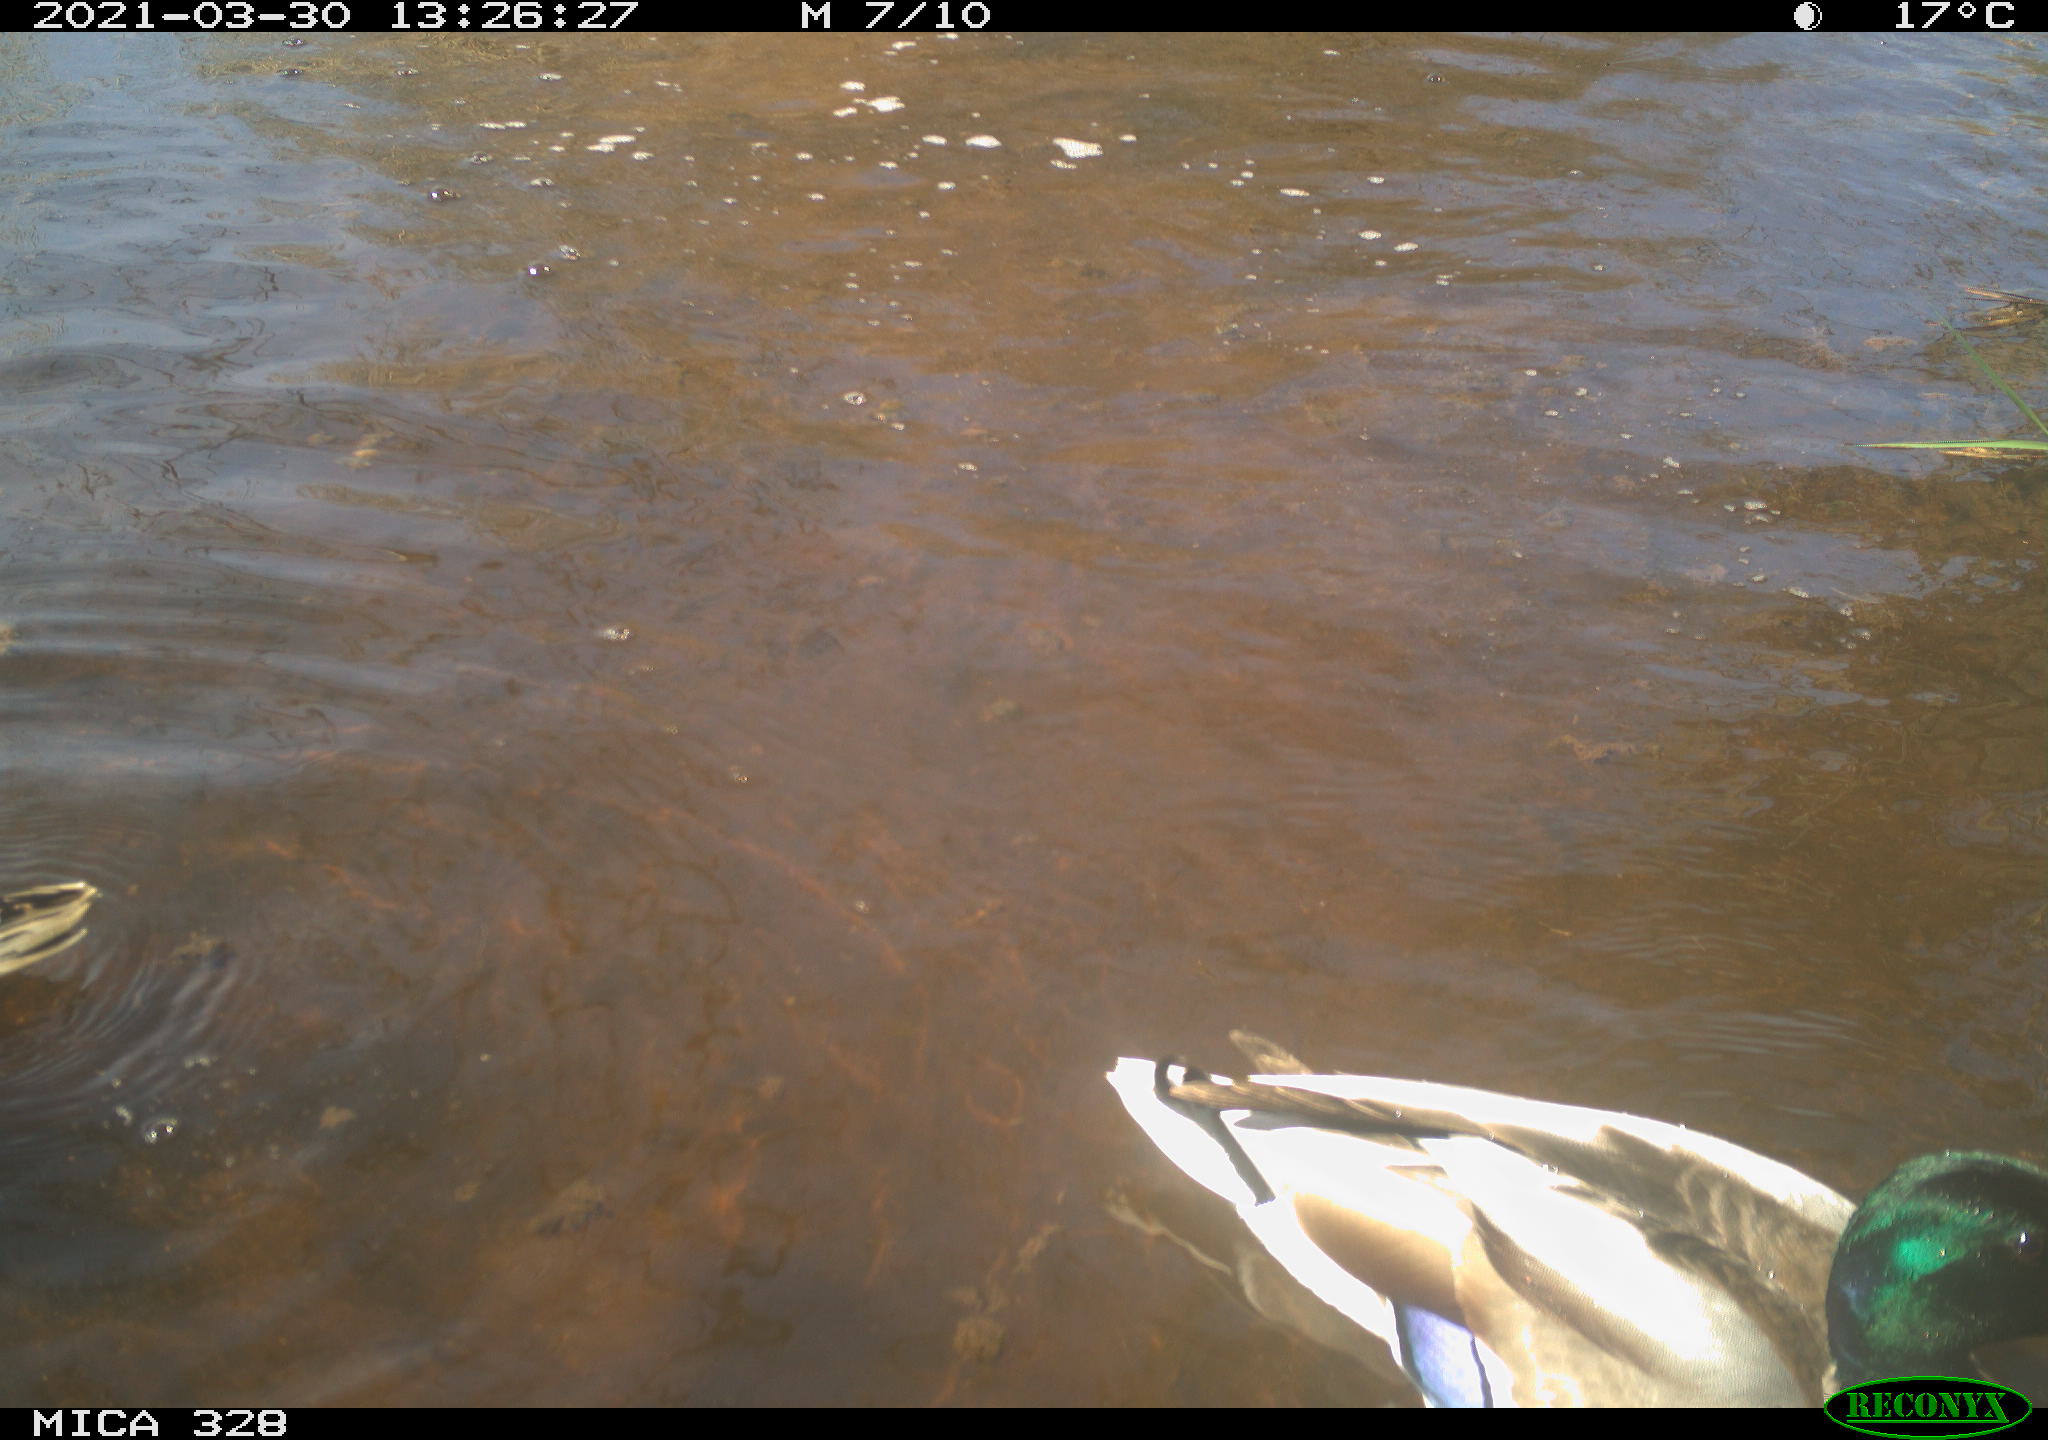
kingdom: Animalia
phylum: Chordata
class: Aves
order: Anseriformes
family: Anatidae
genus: Anas
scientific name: Anas platyrhynchos
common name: Mallard
